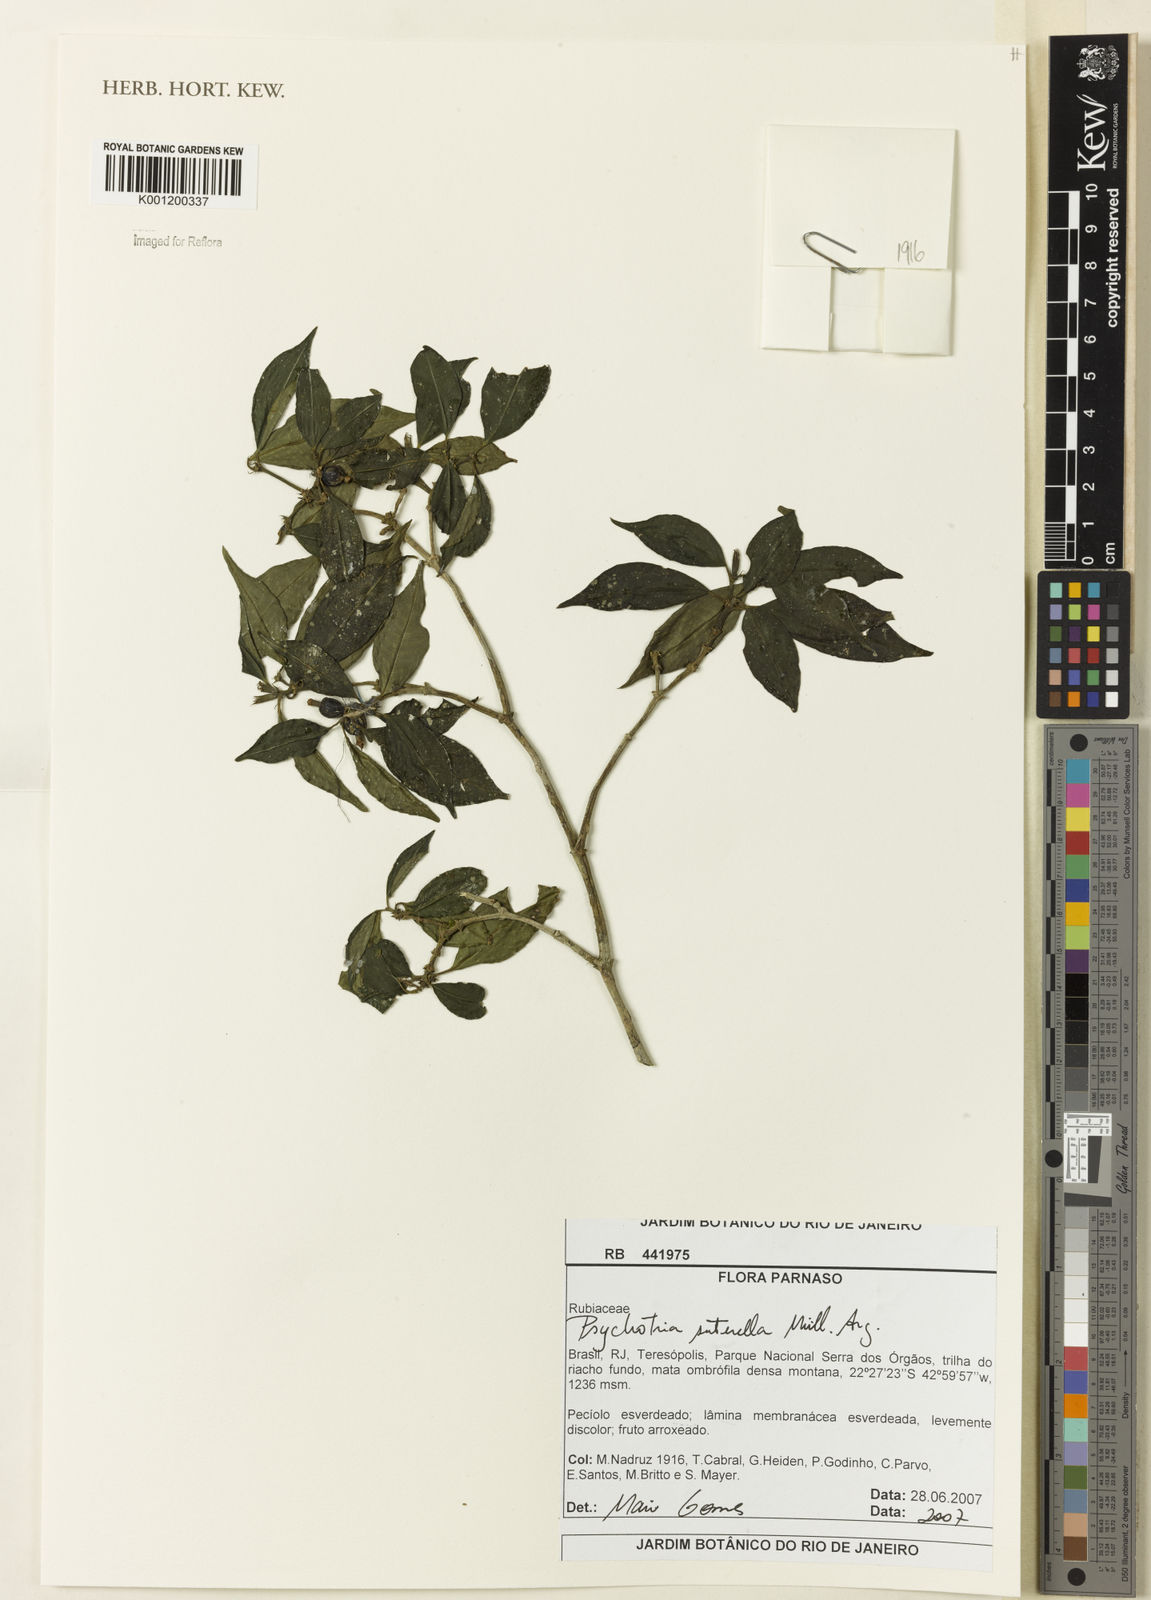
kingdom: Plantae
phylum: Tracheophyta
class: Magnoliopsida
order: Gentianales
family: Rubiaceae
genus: Psychotria
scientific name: Psychotria
